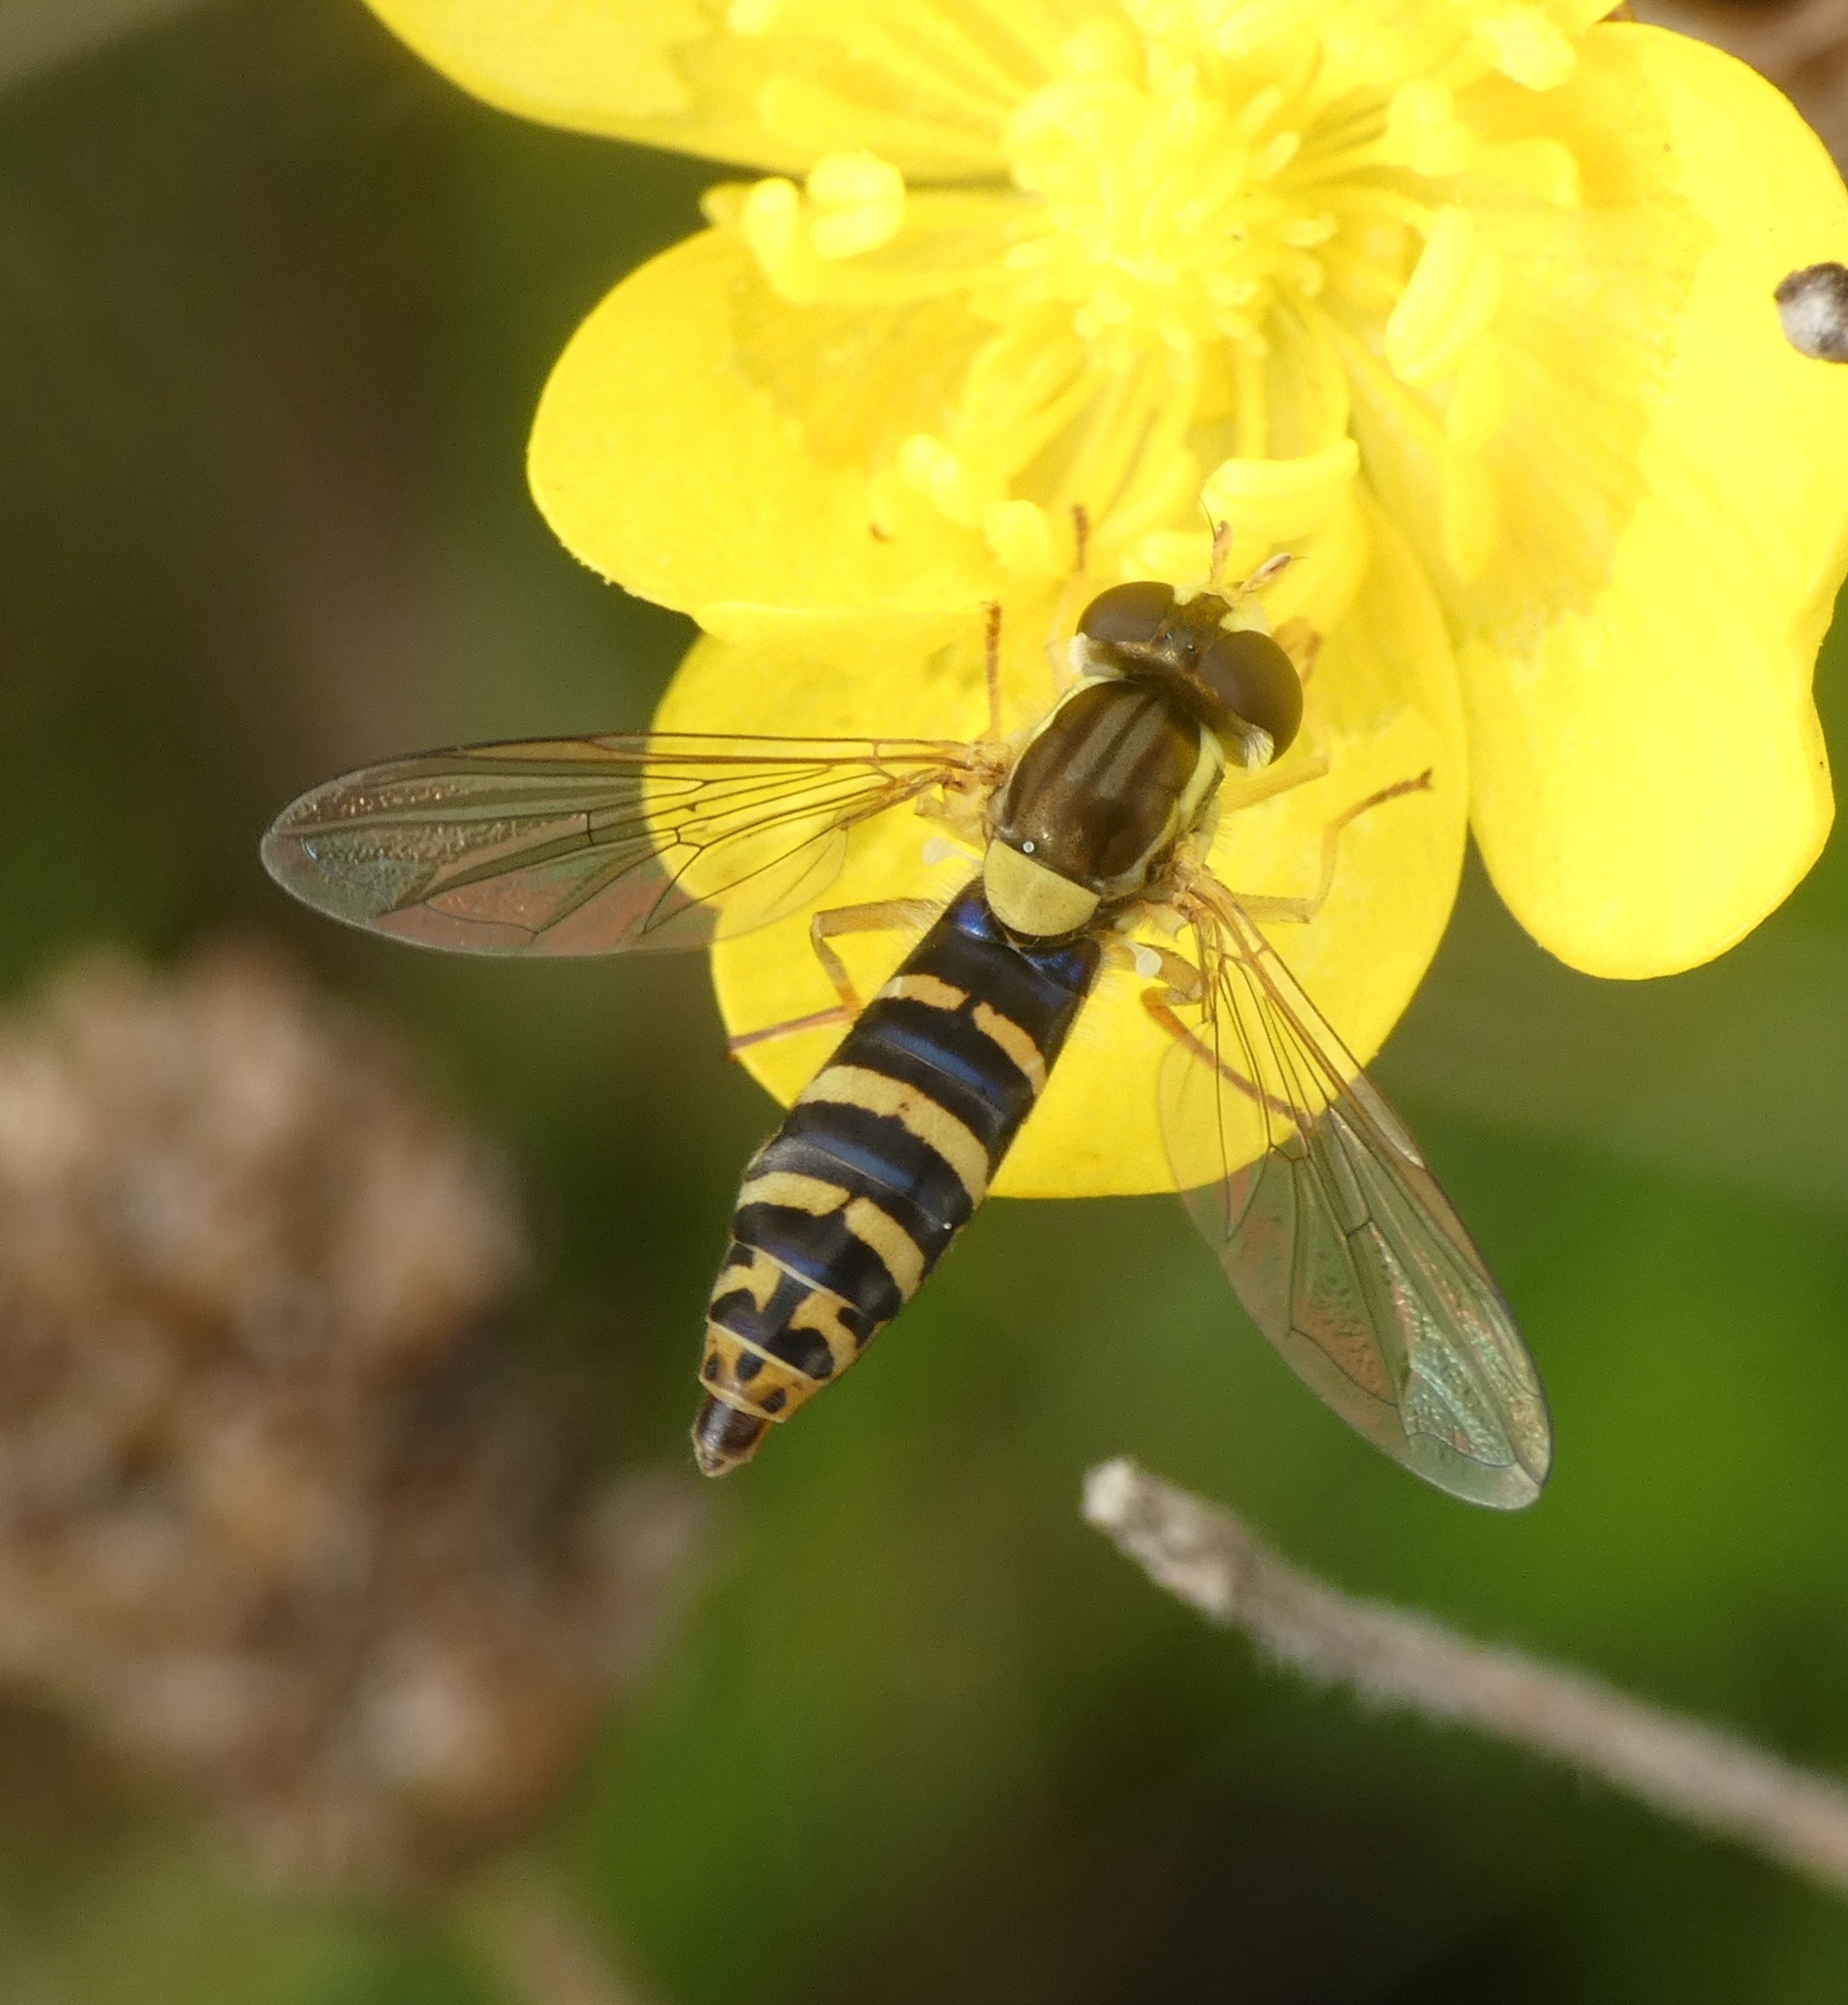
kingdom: Animalia
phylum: Arthropoda
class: Insecta
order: Diptera
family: Syrphidae
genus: Sphaerophoria
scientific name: Sphaerophoria batava
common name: Mose-kuglebærerflue
